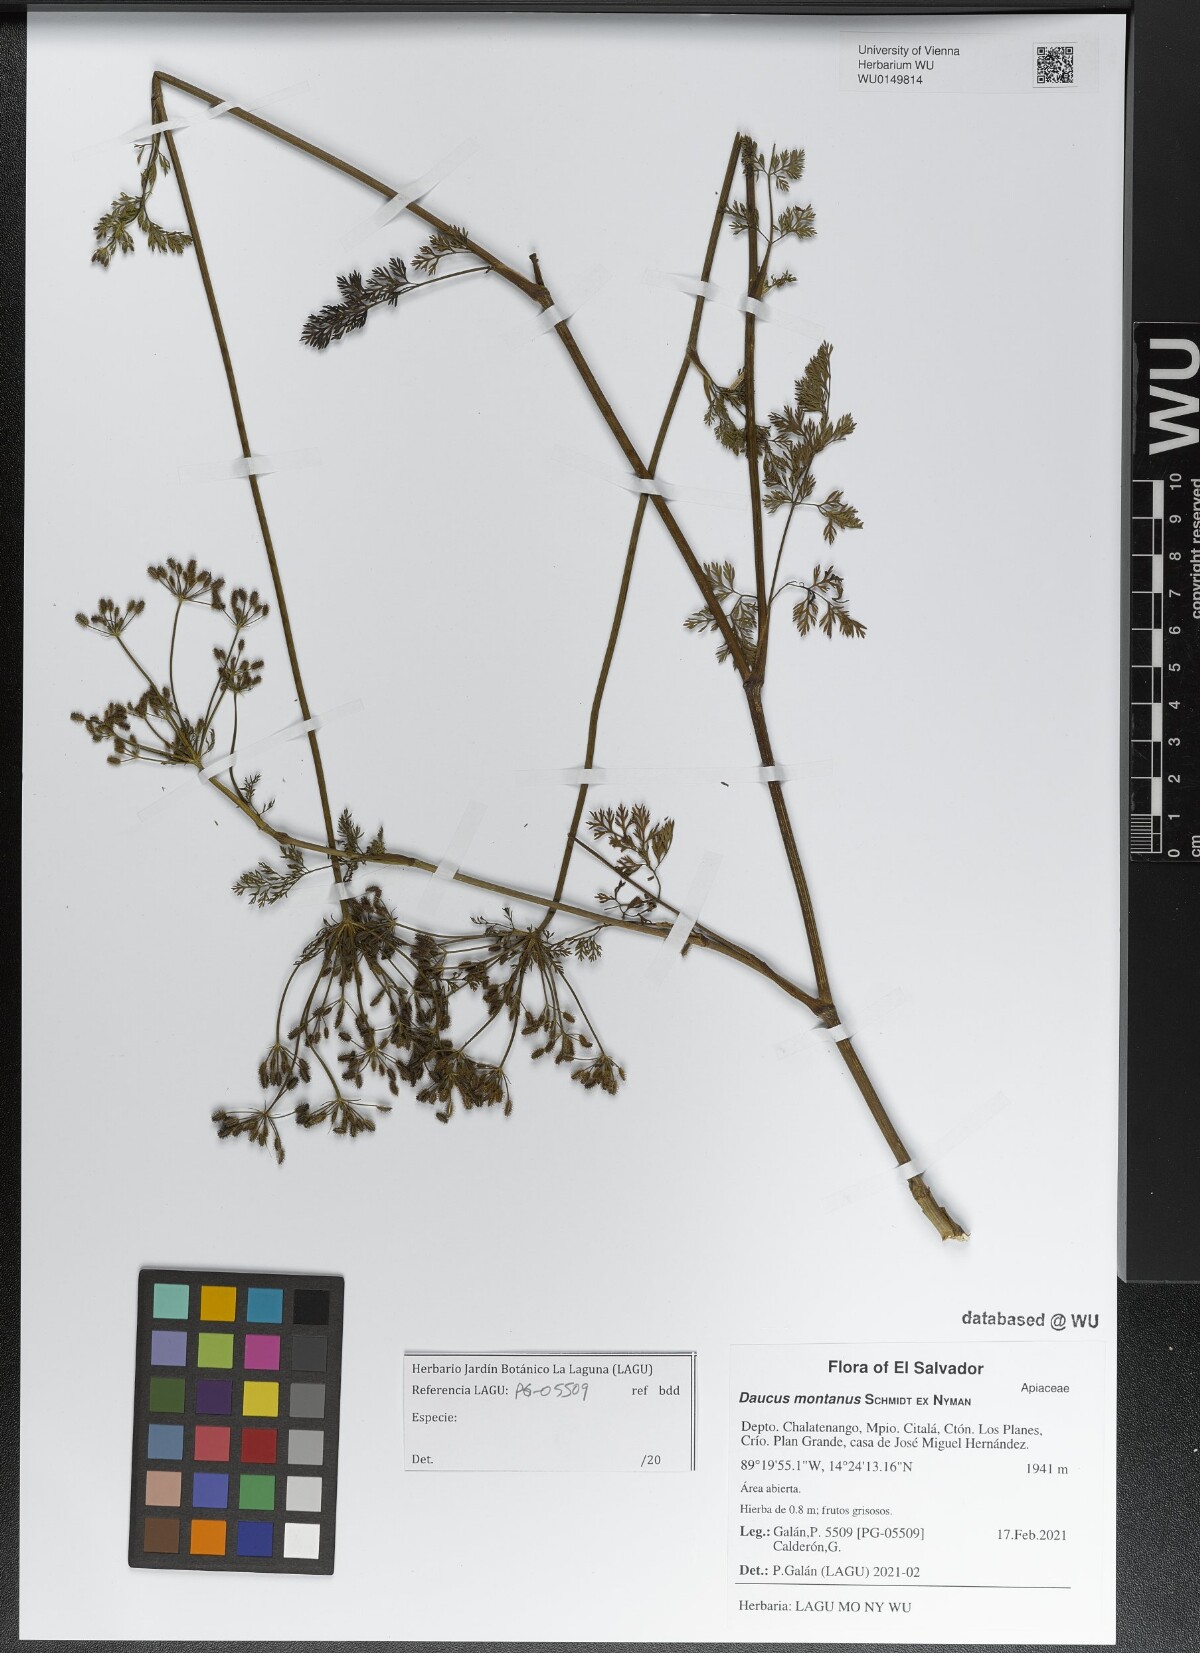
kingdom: Plantae
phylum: Tracheophyta
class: Magnoliopsida
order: Apiales
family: Apiaceae
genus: Daucus
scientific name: Daucus carota
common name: Wild carrot
